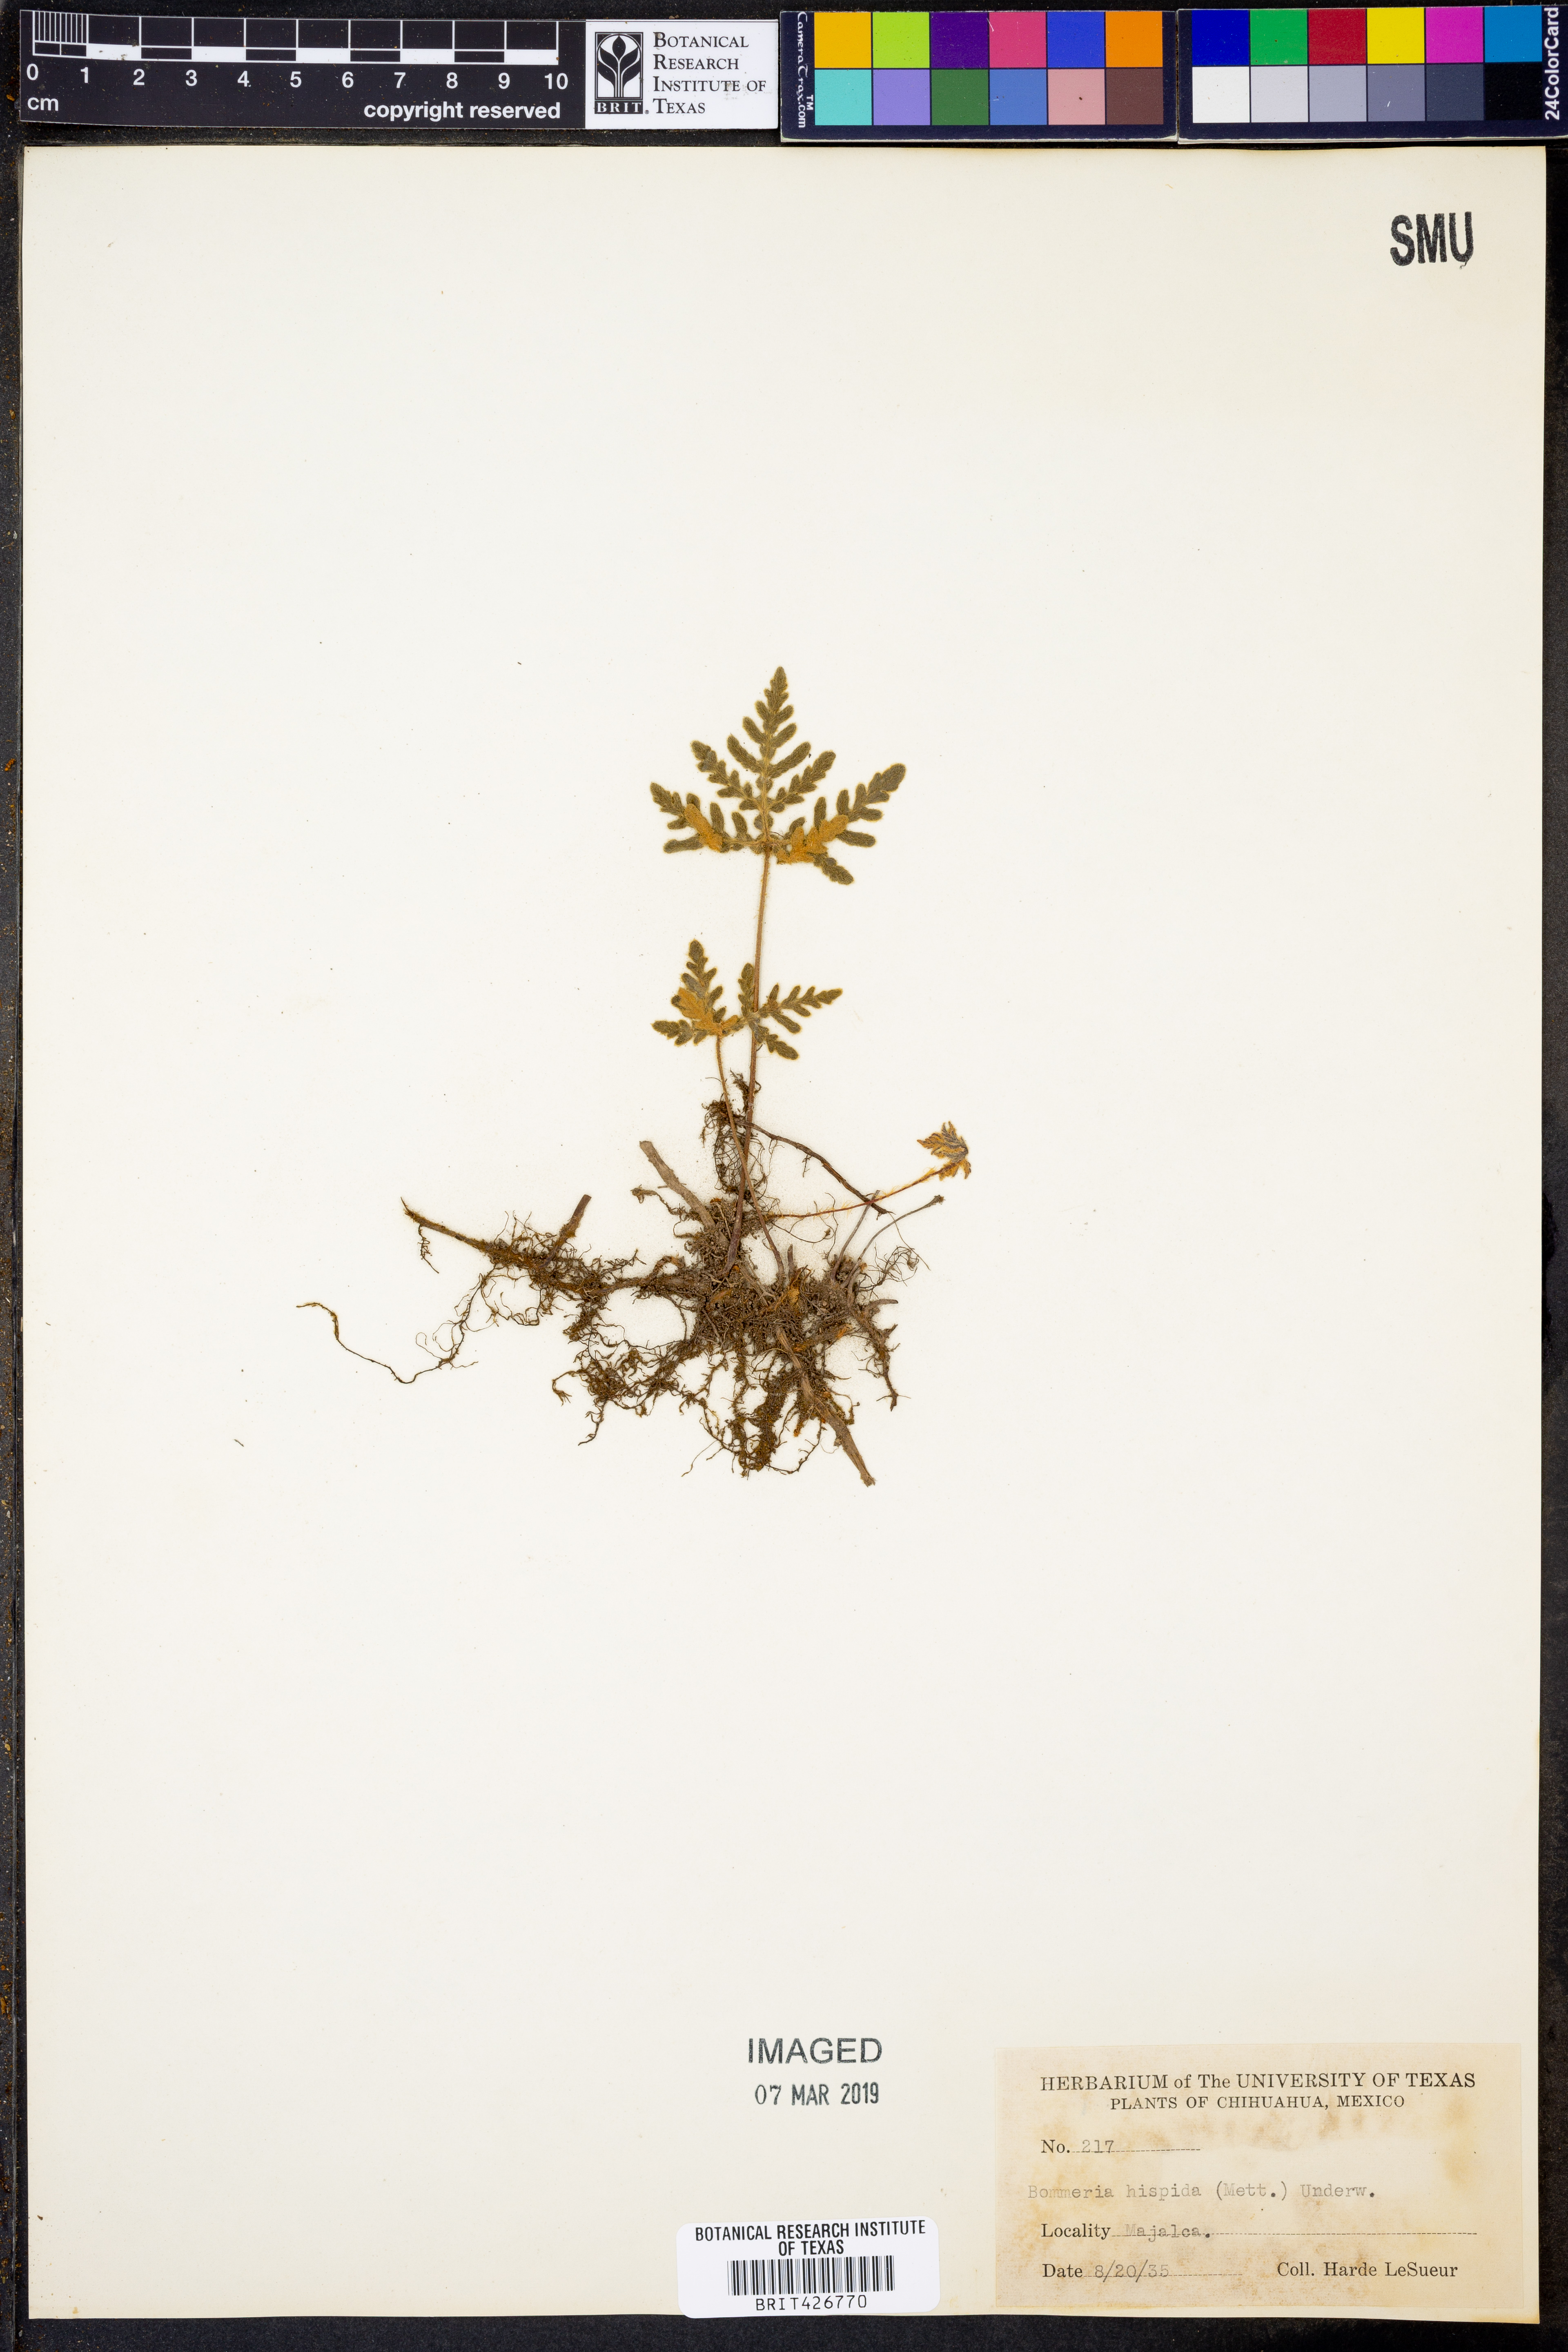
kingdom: Plantae
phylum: Tracheophyta
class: Polypodiopsida
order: Polypodiales
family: Pteridaceae
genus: Bommeria
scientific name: Bommeria hispida
